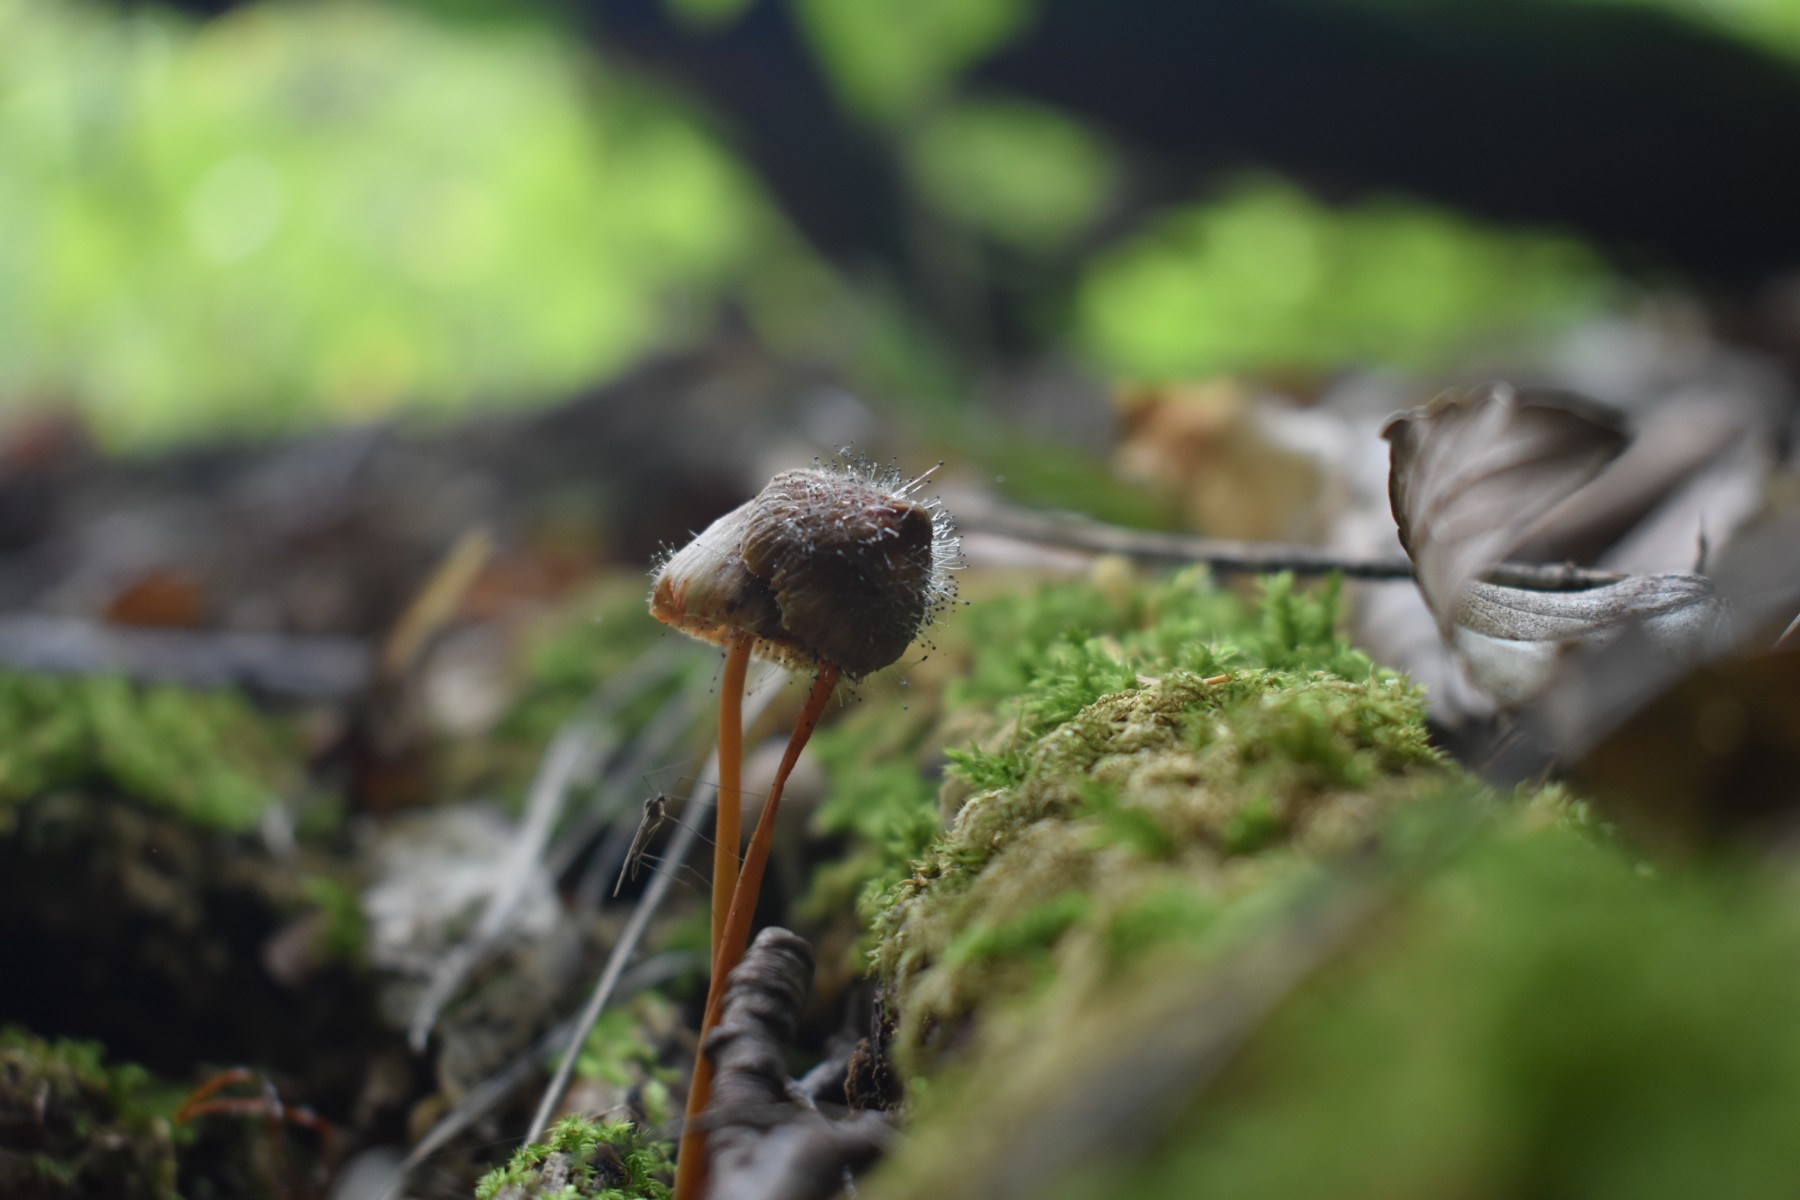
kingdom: Fungi
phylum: Mucoromycota
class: Mucoromycetes
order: Mucorales
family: Phycomycetaceae
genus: Spinellus
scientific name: Spinellus fusiger
